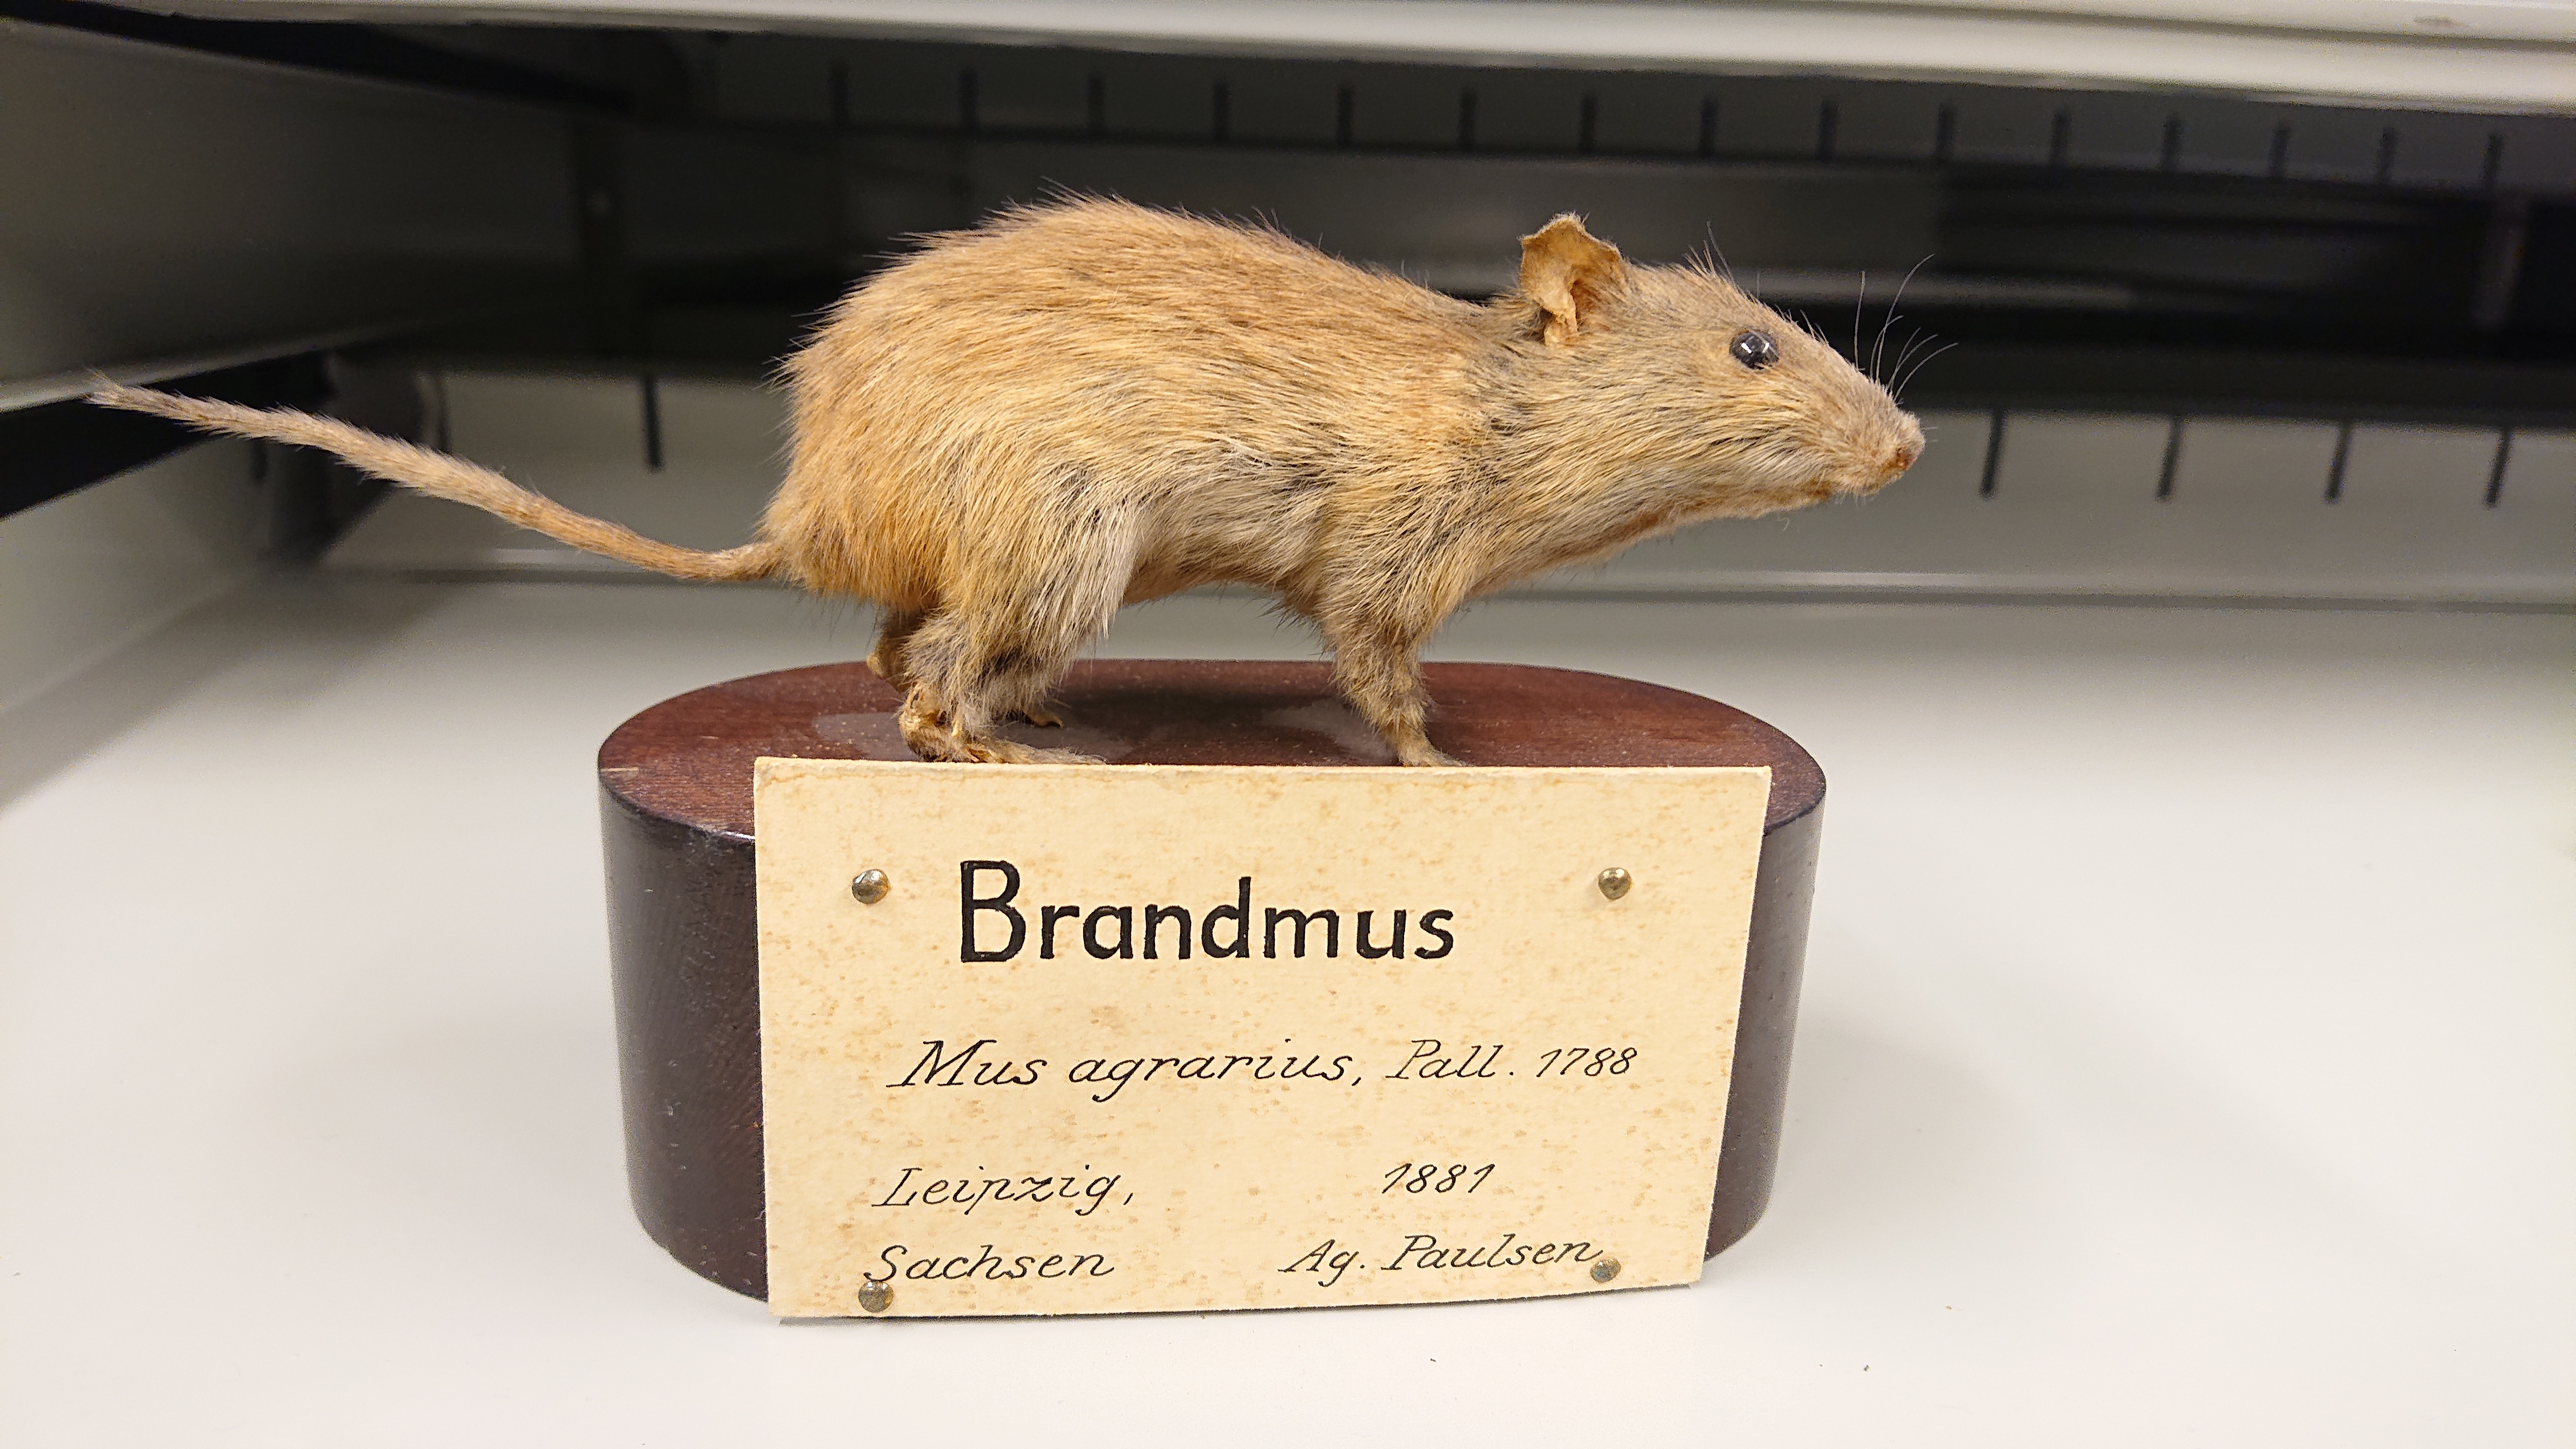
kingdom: Animalia
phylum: Chordata
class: Mammalia
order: Rodentia
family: Muridae
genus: Apodemus
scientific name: Apodemus agrarius
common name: Striped field mouse
